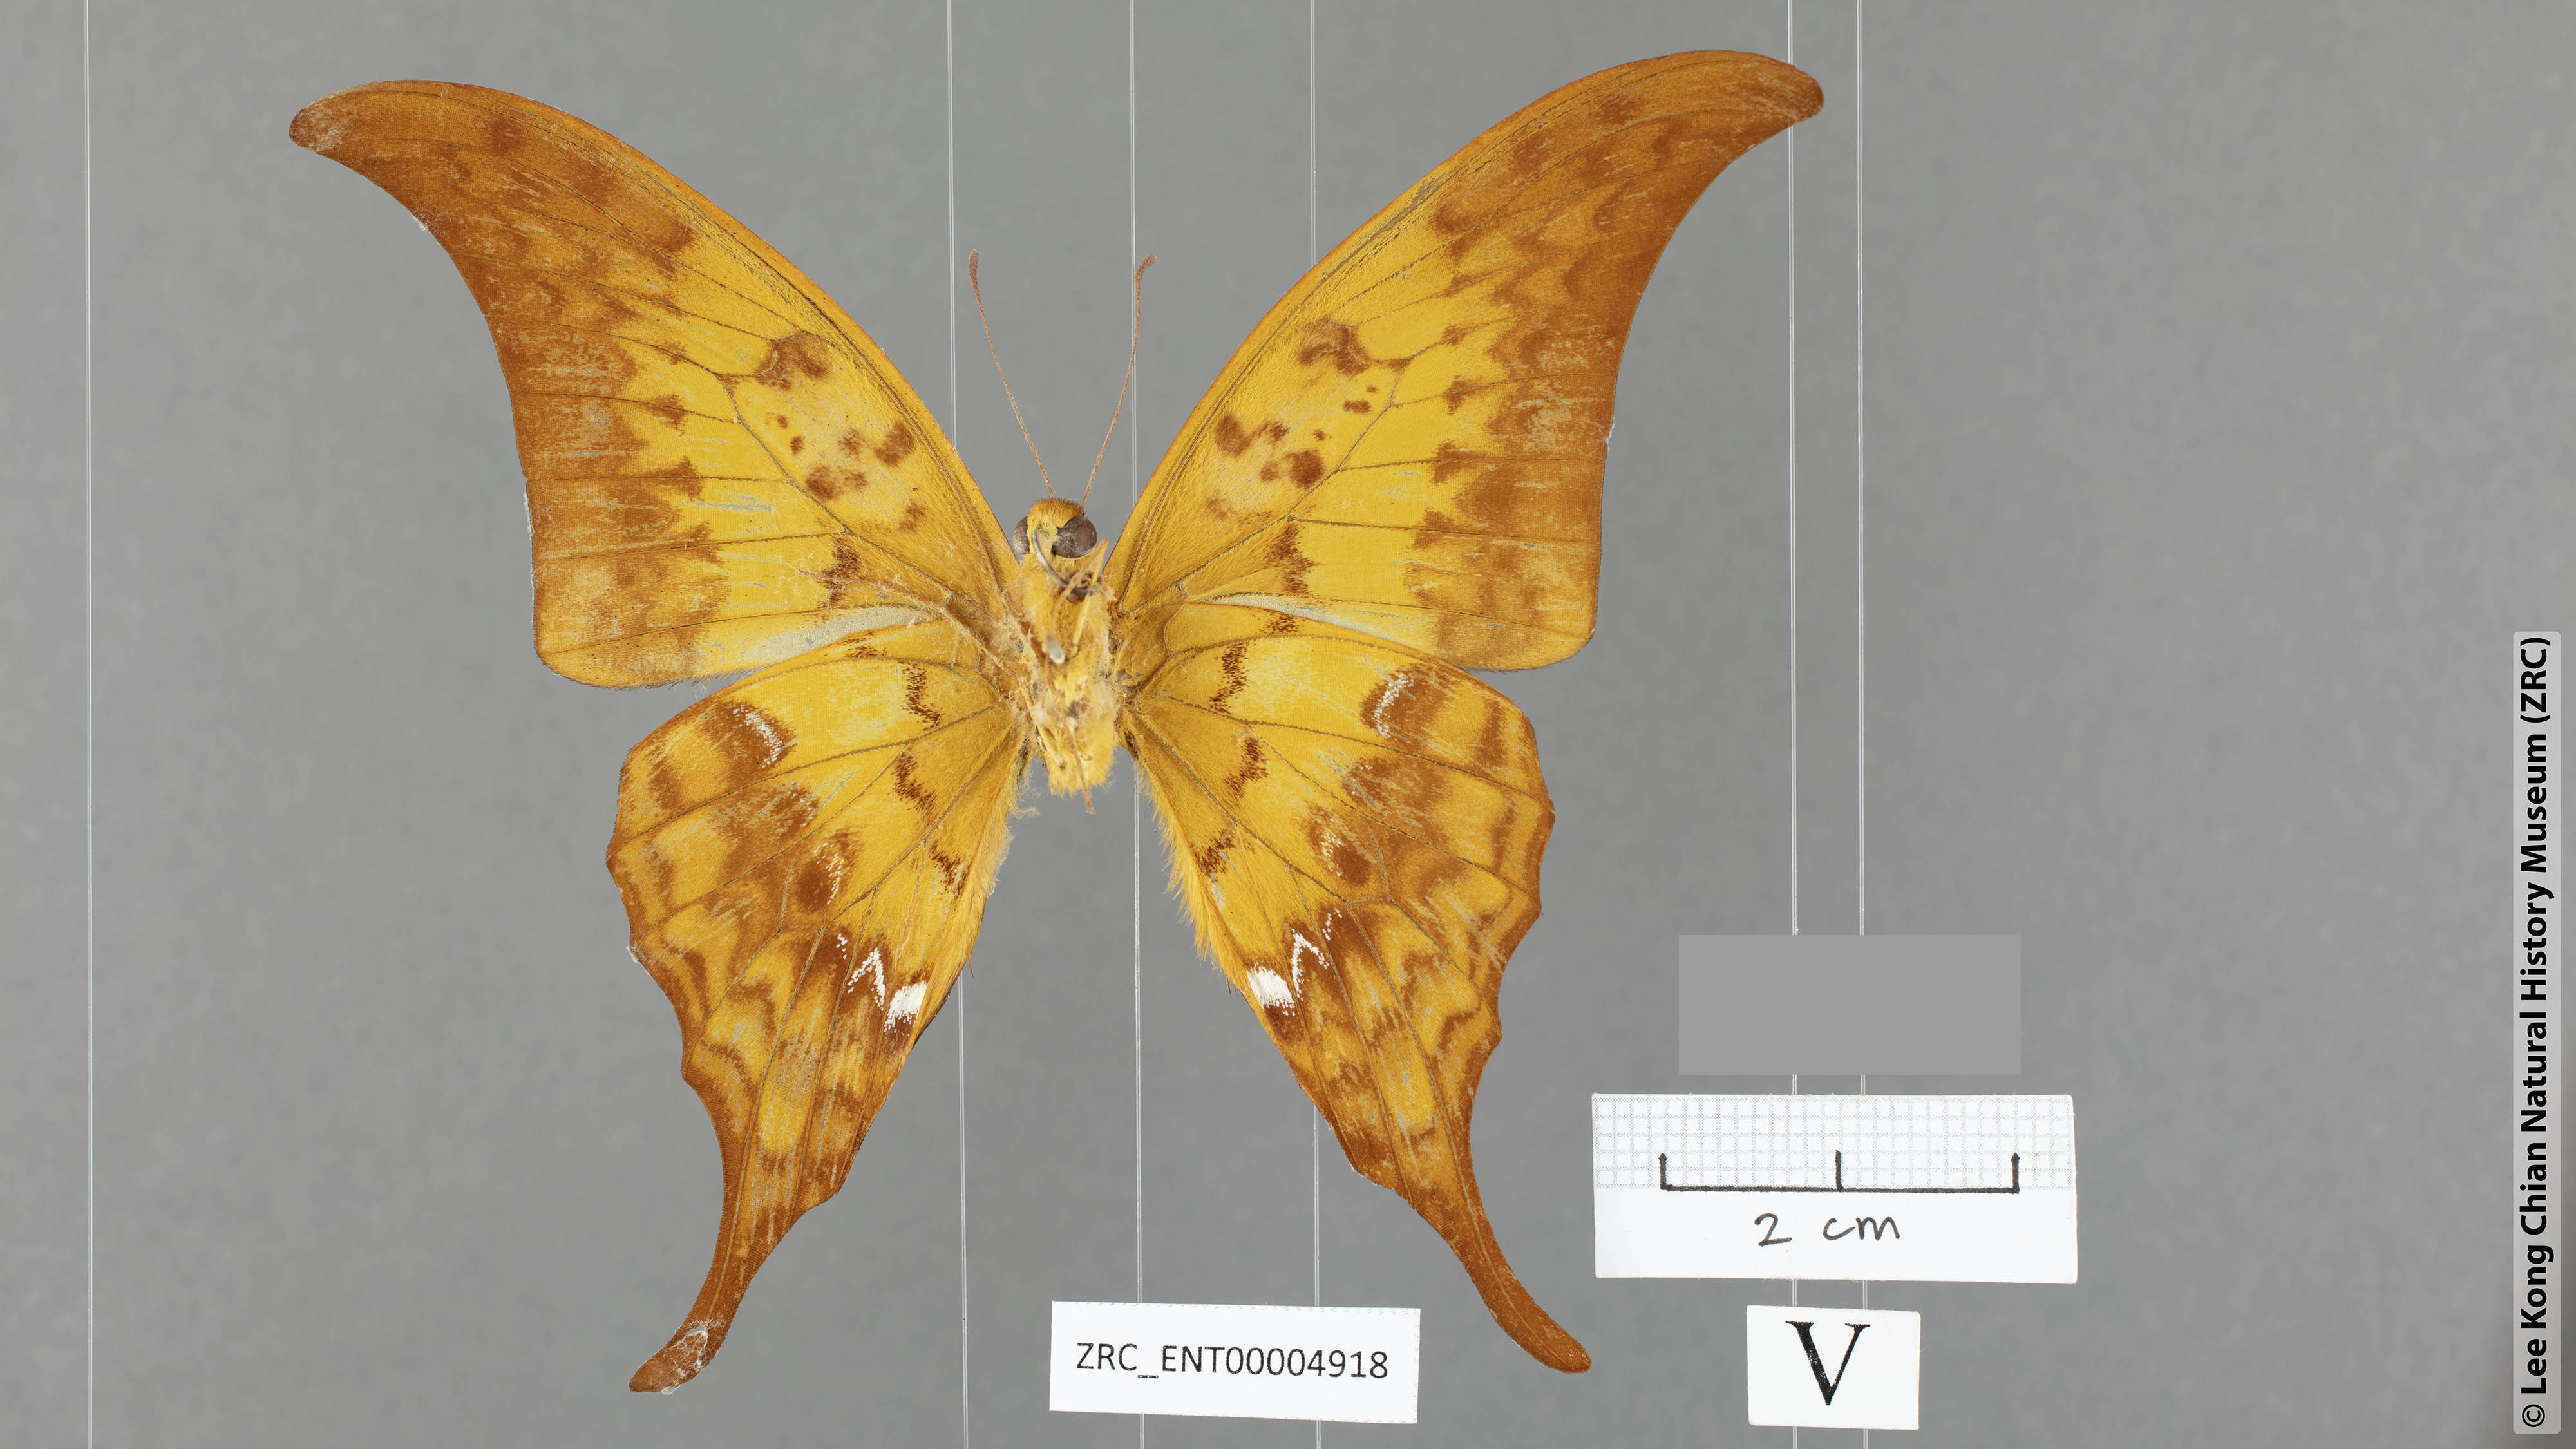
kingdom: Animalia
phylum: Arthropoda
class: Insecta
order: Lepidoptera
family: Papilionidae
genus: Meandrusa
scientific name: Meandrusa payeni
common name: Outlet sword
